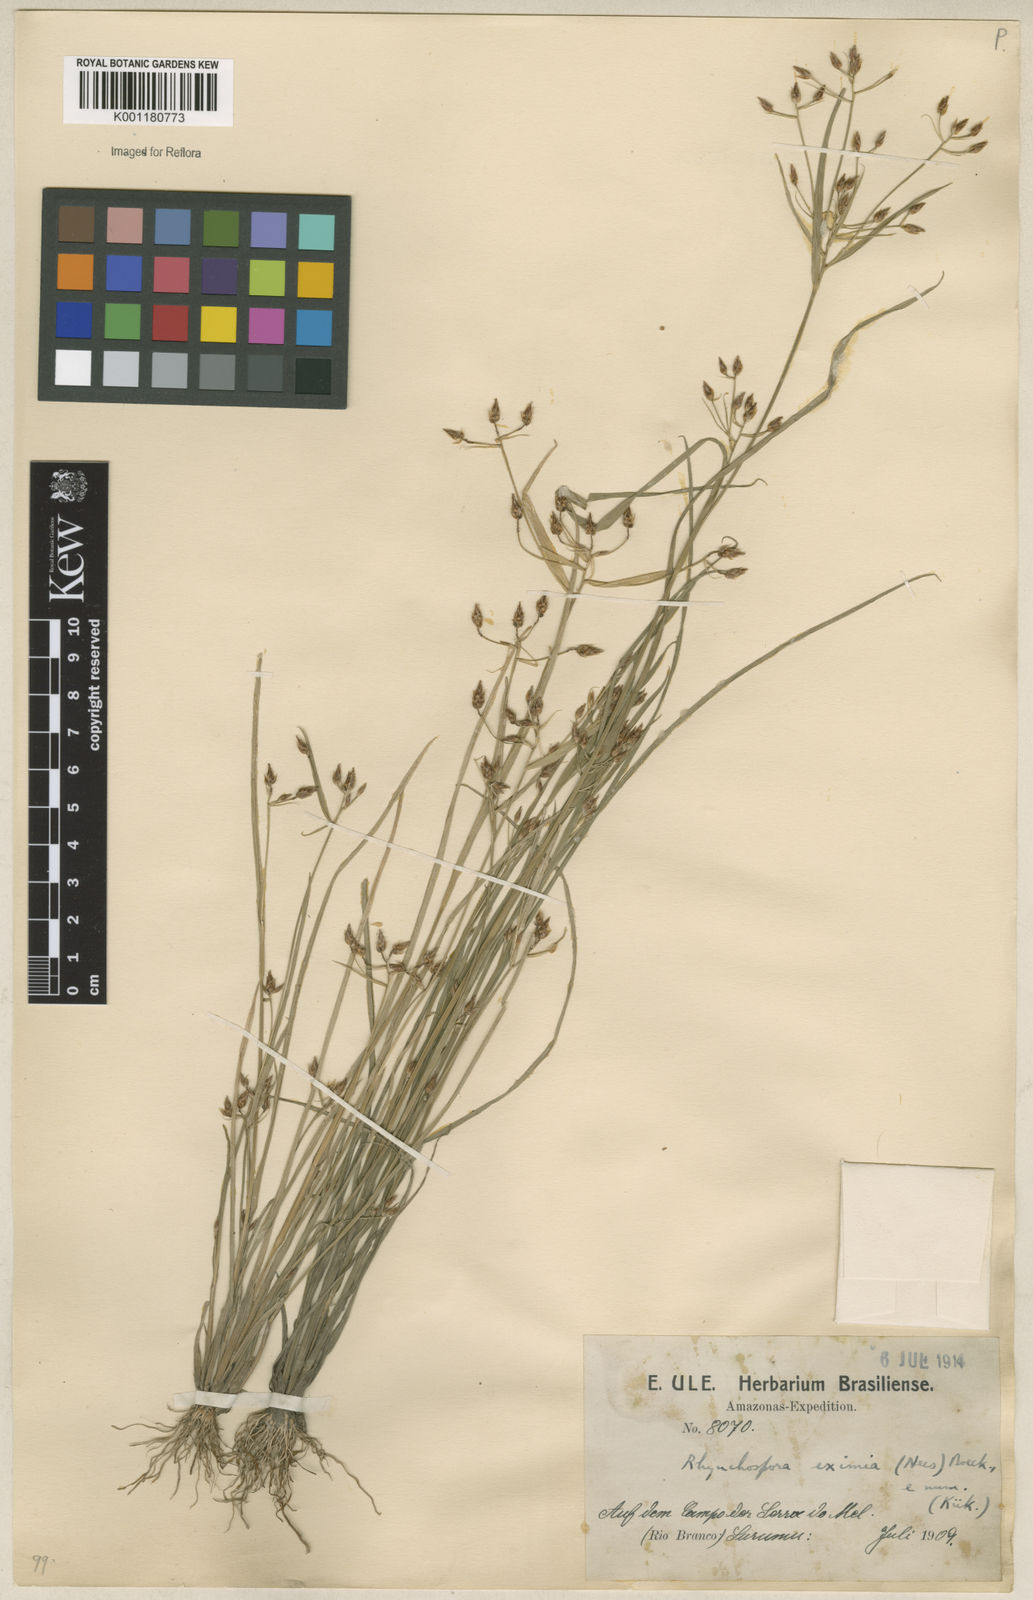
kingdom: Plantae
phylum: Tracheophyta
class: Liliopsida
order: Poales
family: Cyperaceae
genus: Rhynchospora
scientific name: Rhynchospora eximia
